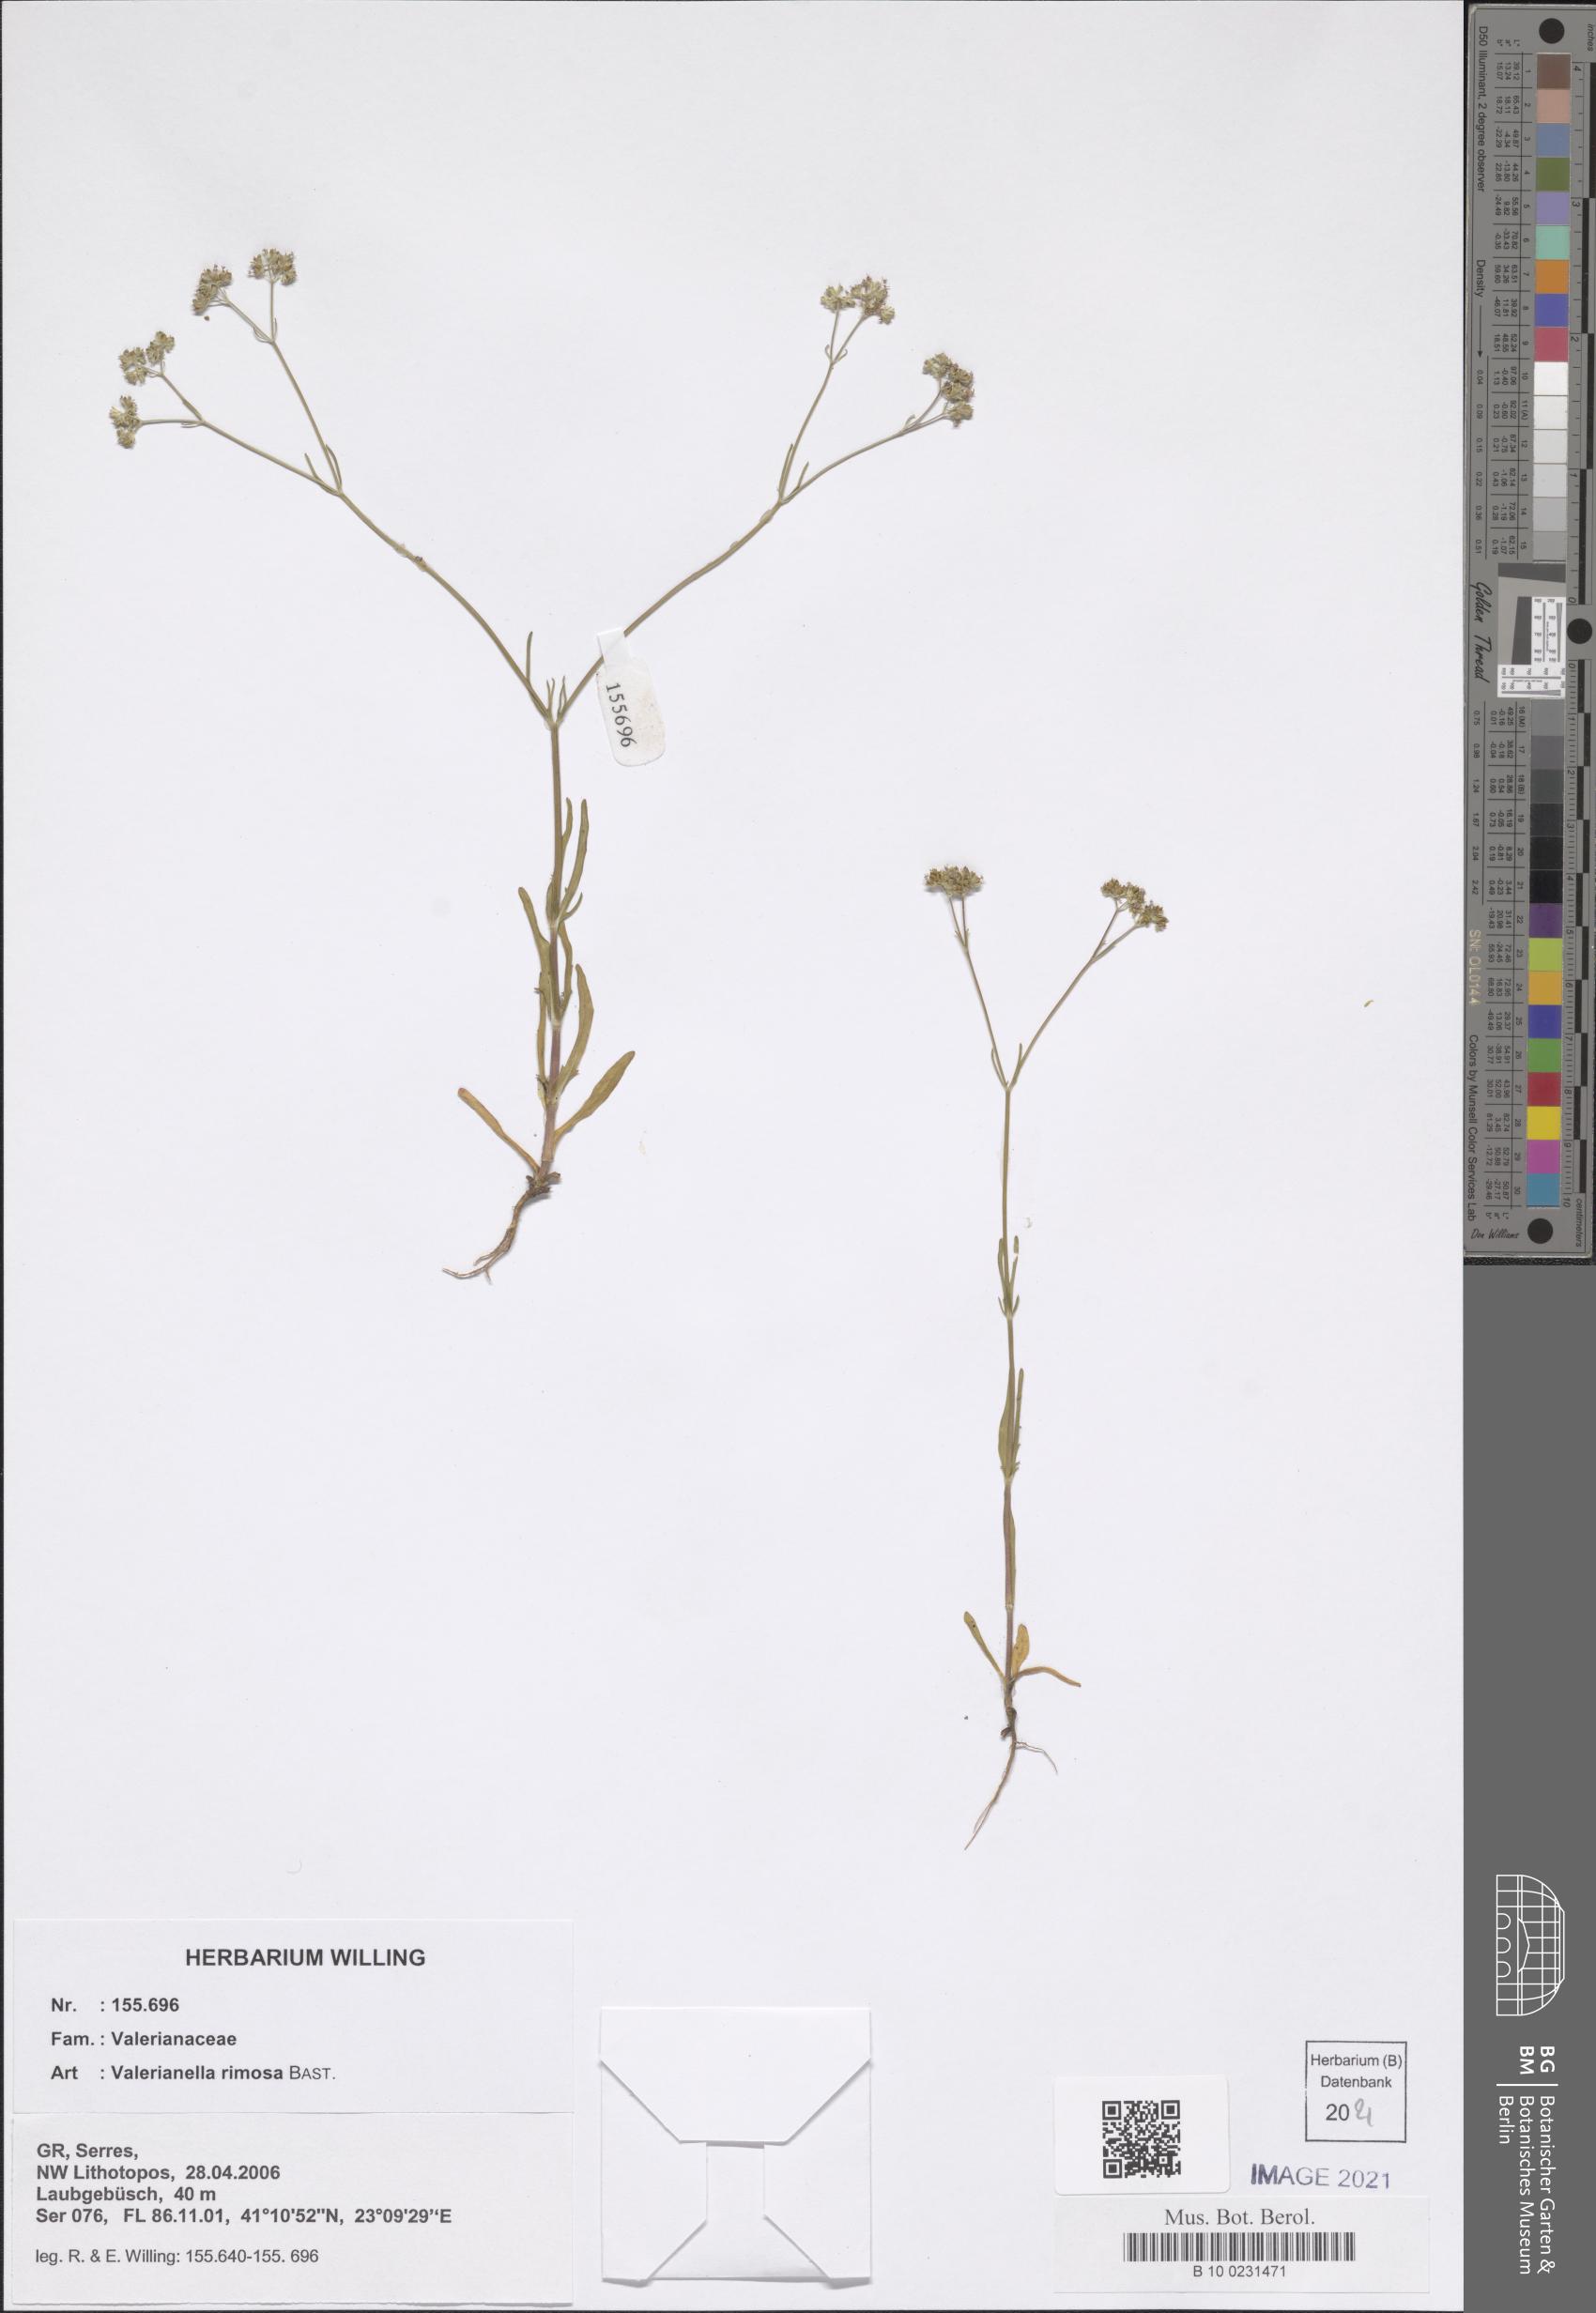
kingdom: Plantae
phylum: Tracheophyta
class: Magnoliopsida
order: Dipsacales
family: Caprifoliaceae
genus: Valerianella
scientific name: Valerianella rimosa
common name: Broad-fruited cornsalad
